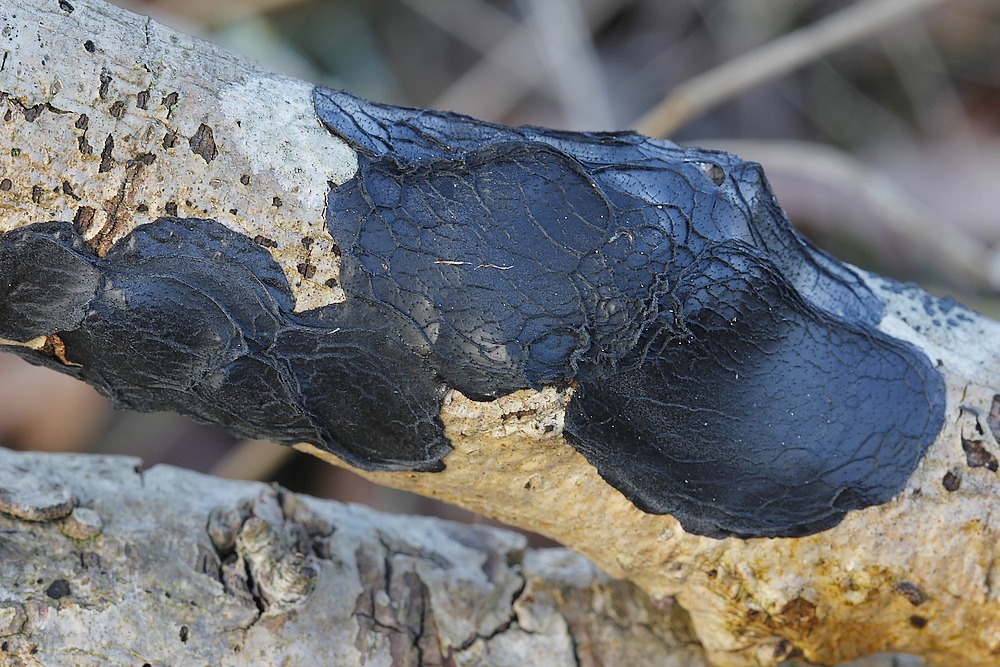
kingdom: Fungi
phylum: Basidiomycota
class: Agaricomycetes
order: Auriculariales
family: Auriculariaceae
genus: Exidia
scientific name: Exidia glandulosa
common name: ege-bævretop
